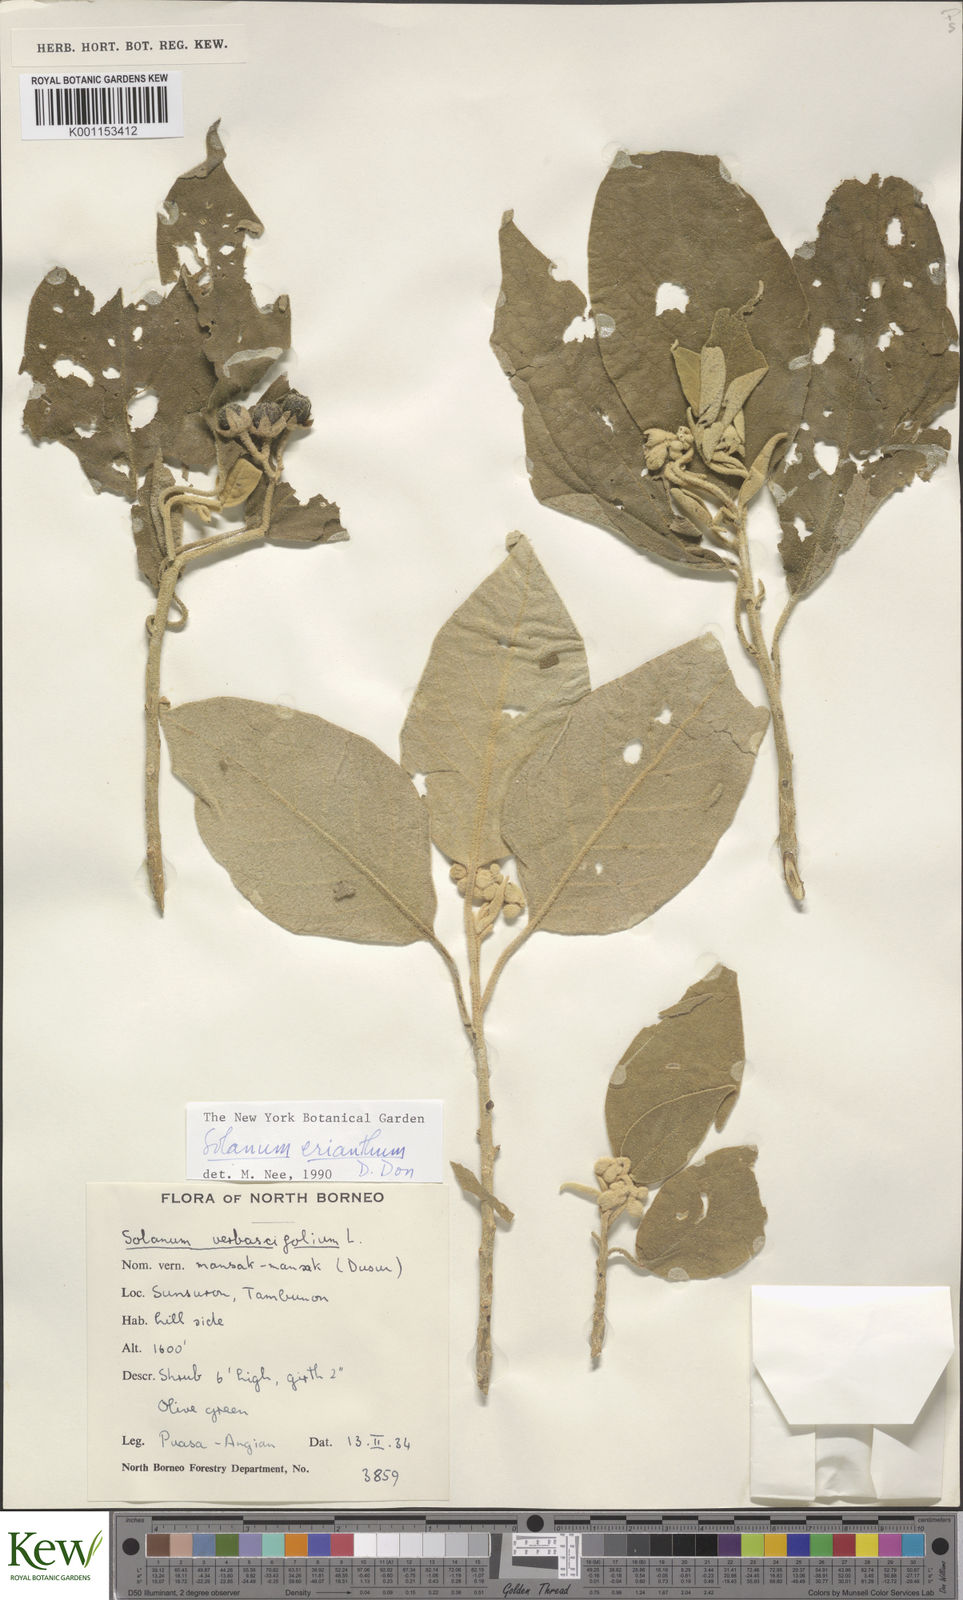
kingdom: Plantae
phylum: Tracheophyta
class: Magnoliopsida
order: Solanales
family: Solanaceae
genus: Solanum
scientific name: Solanum erianthum
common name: Tobacco-tree
